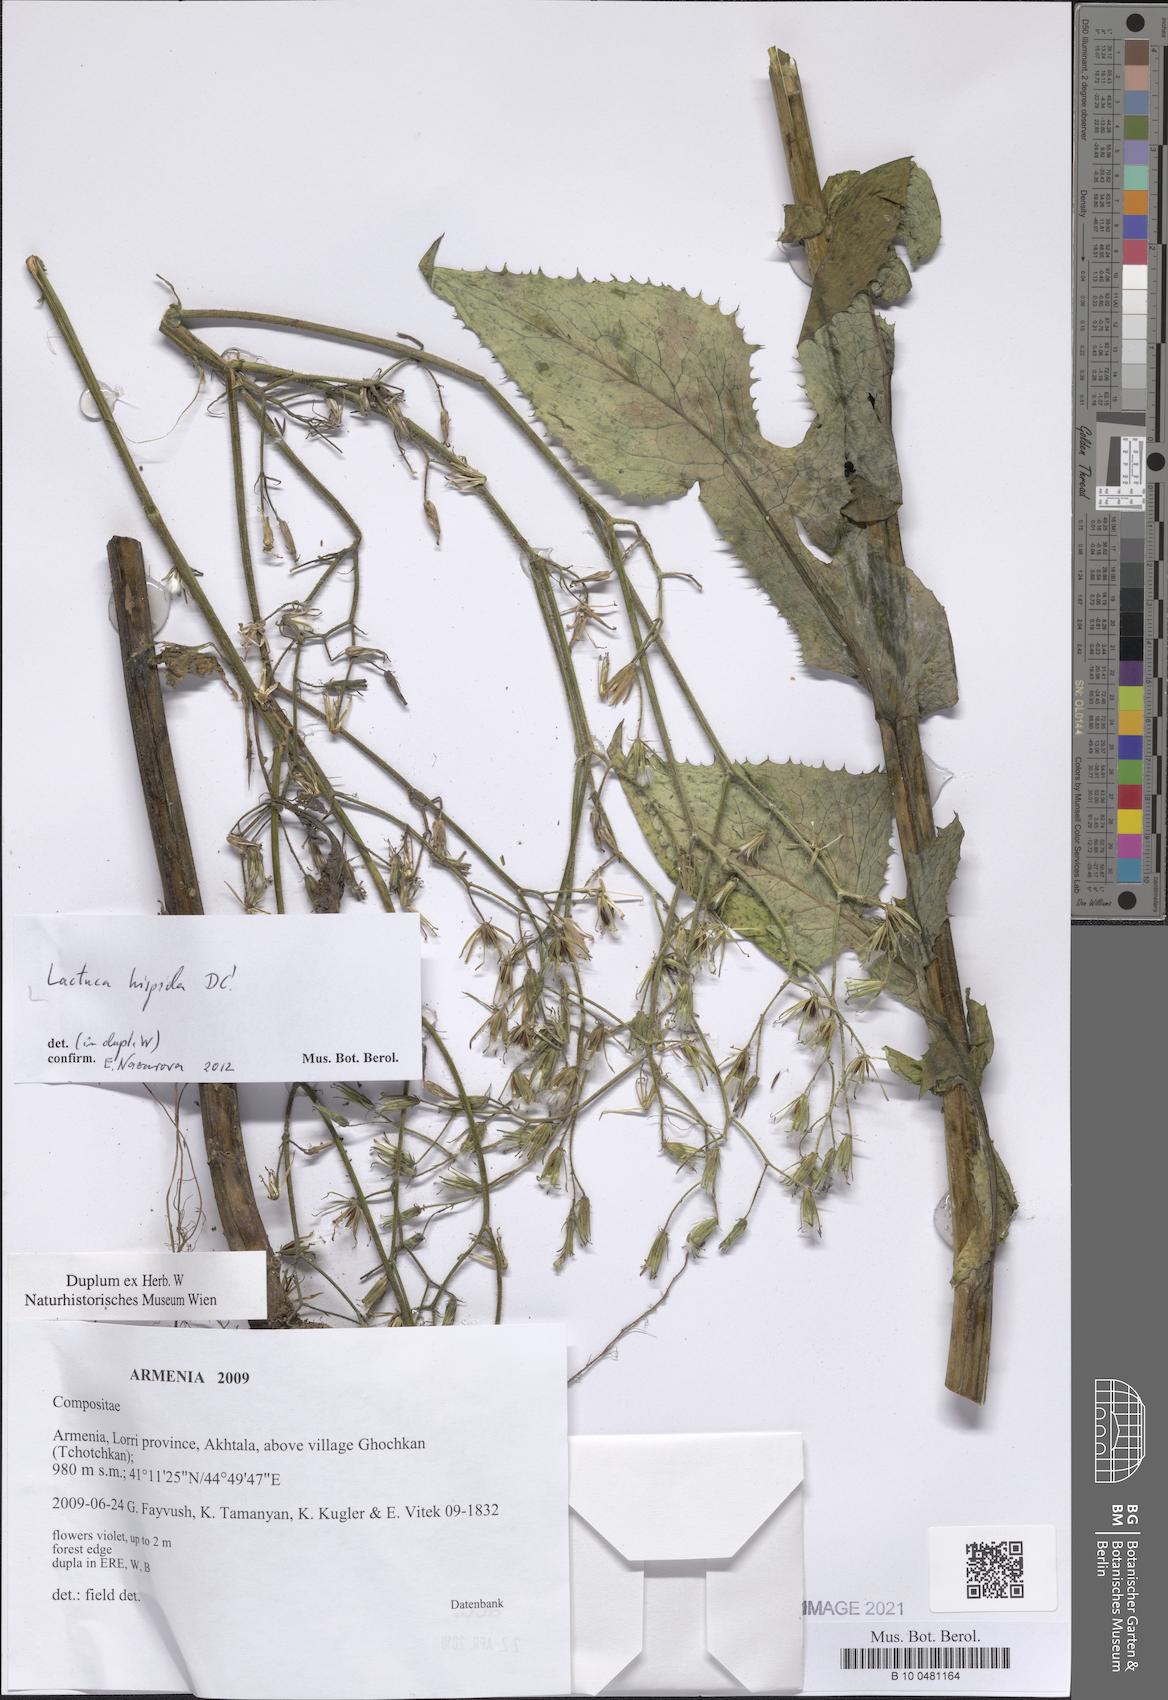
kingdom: Plantae
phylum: Tracheophyta
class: Magnoliopsida
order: Asterales
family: Asteraceae
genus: Lactuca
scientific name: Lactuca hispida
